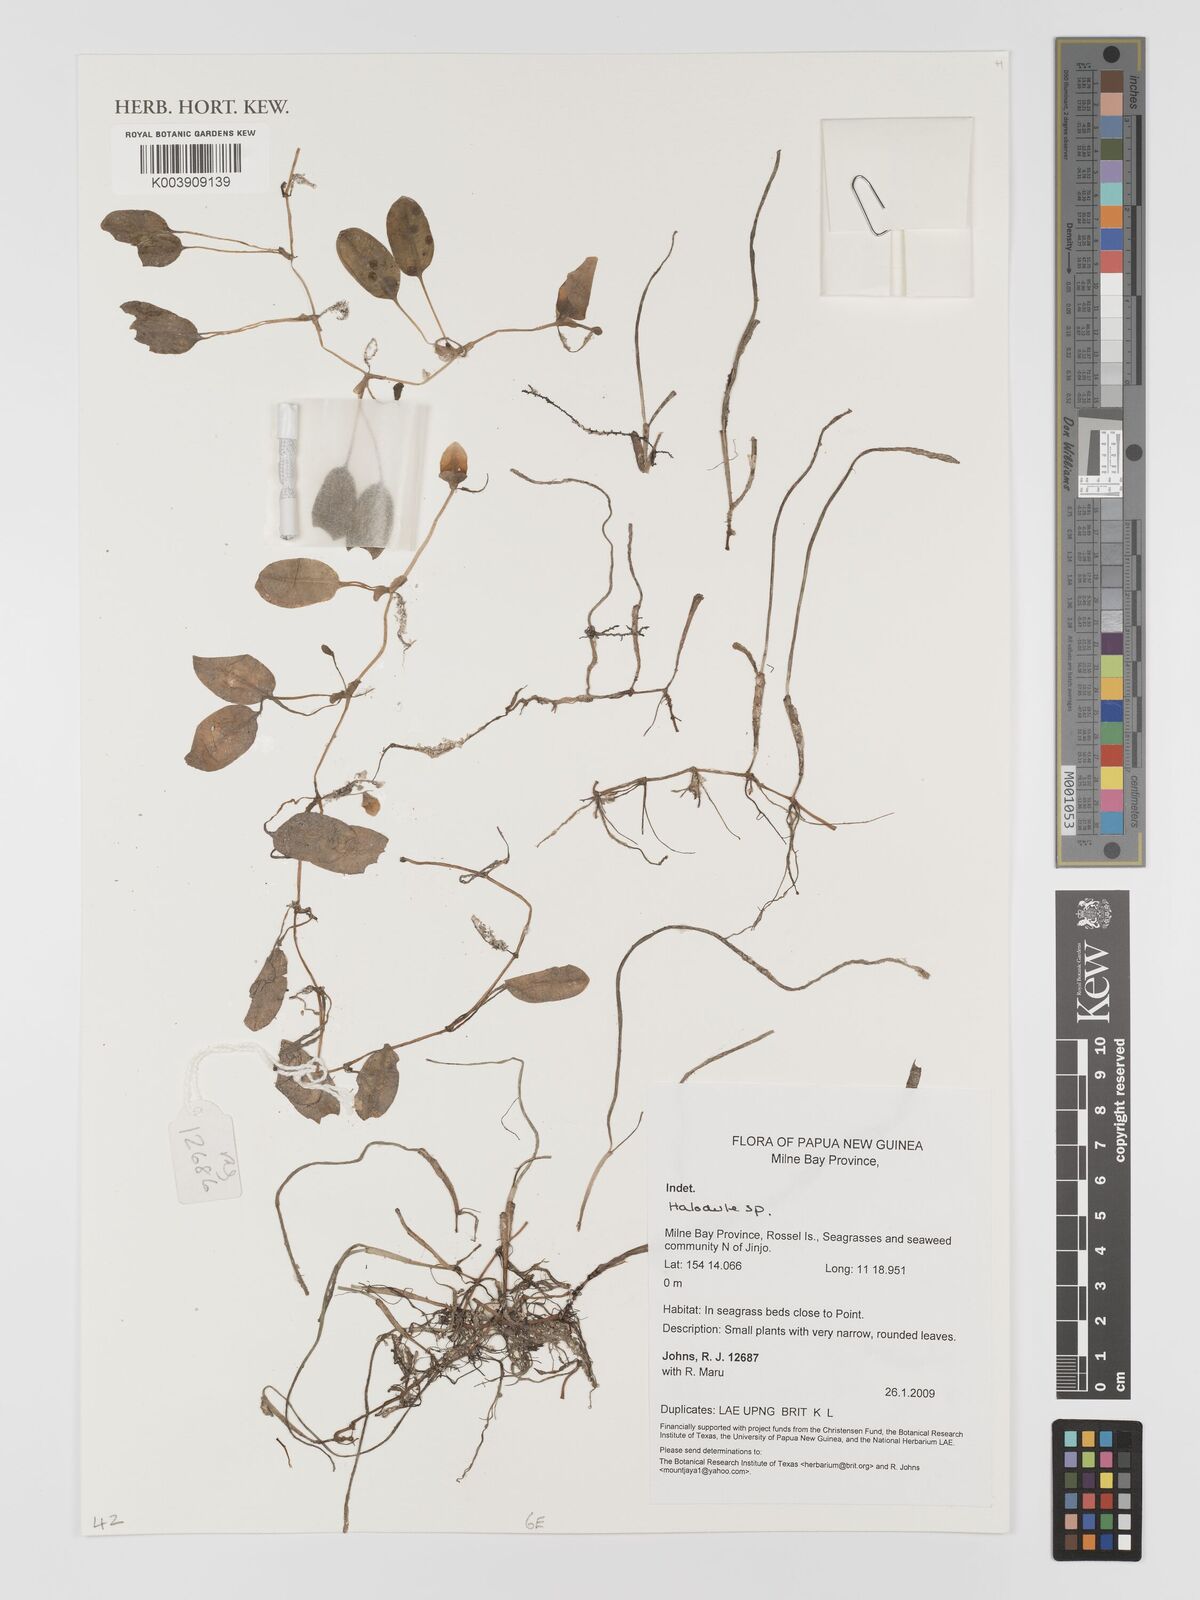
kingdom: Plantae
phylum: Tracheophyta
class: Liliopsida
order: Alismatales
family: Cymodoceaceae
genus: Halodule
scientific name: Halodule
